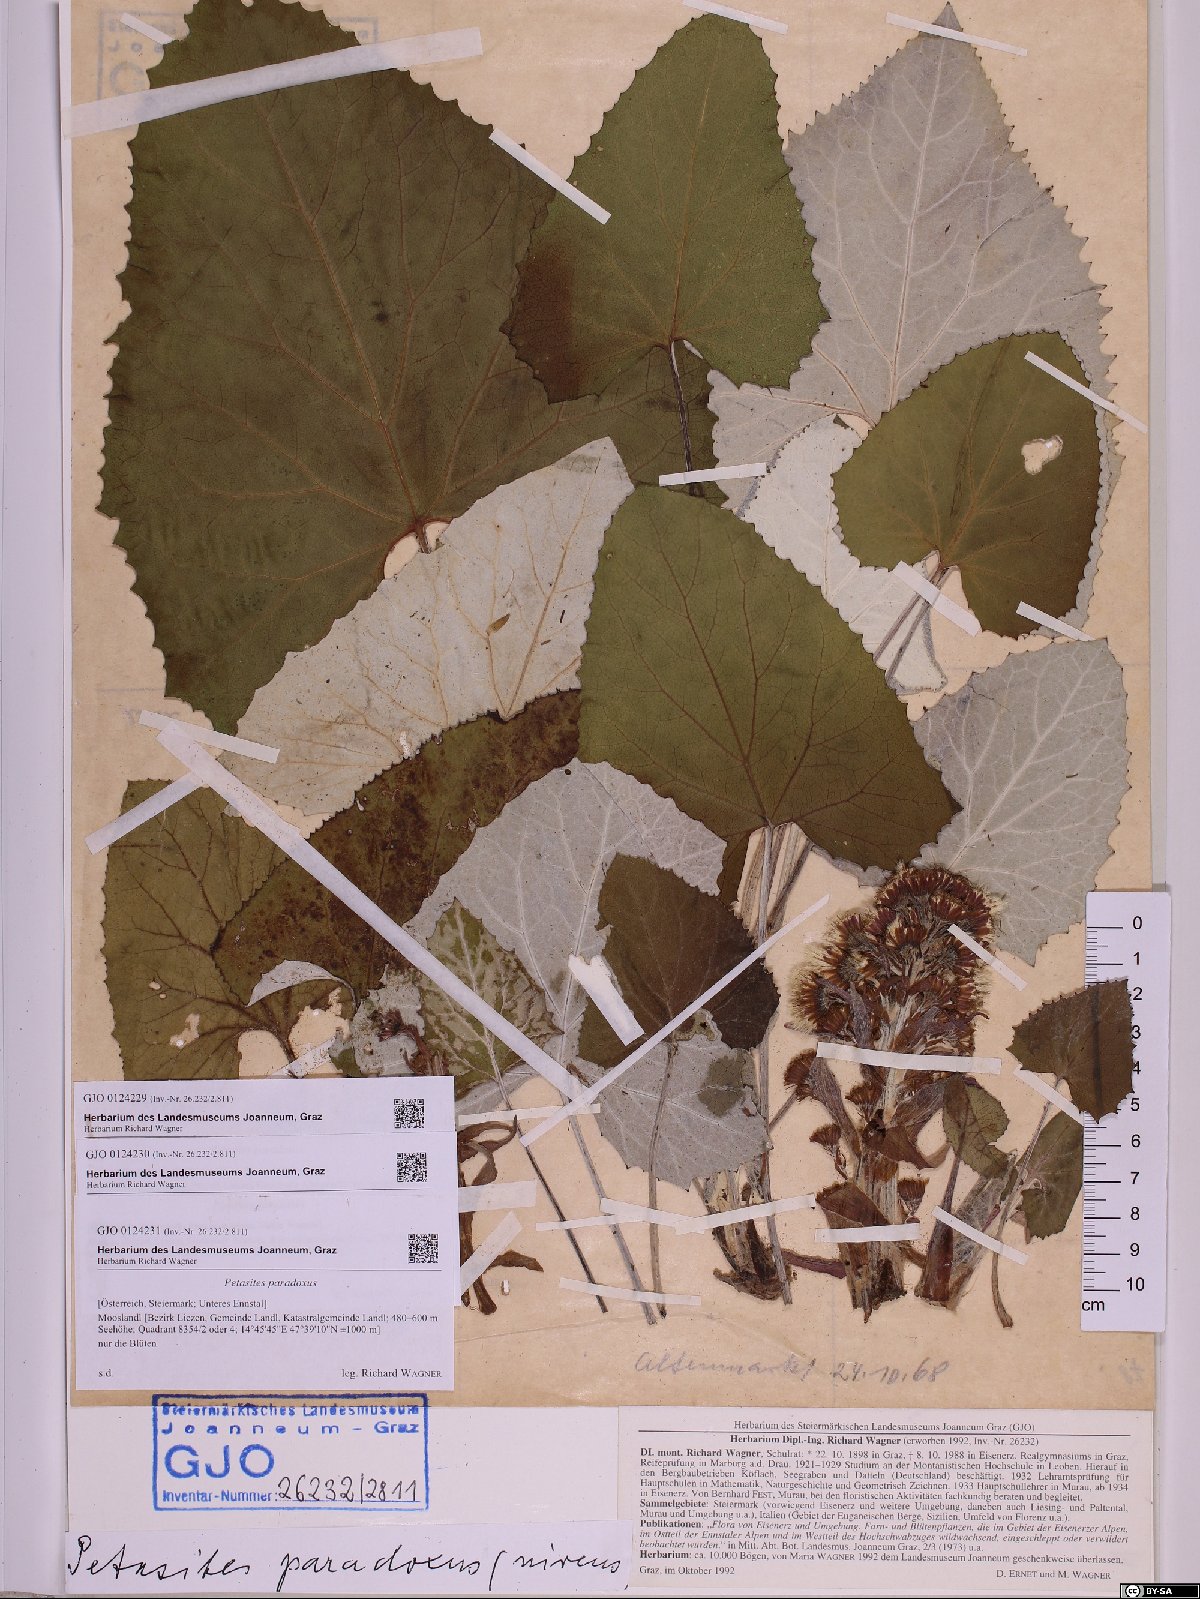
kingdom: Plantae
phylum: Tracheophyta
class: Magnoliopsida
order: Asterales
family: Asteraceae
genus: Petasites
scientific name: Petasites paradoxus
